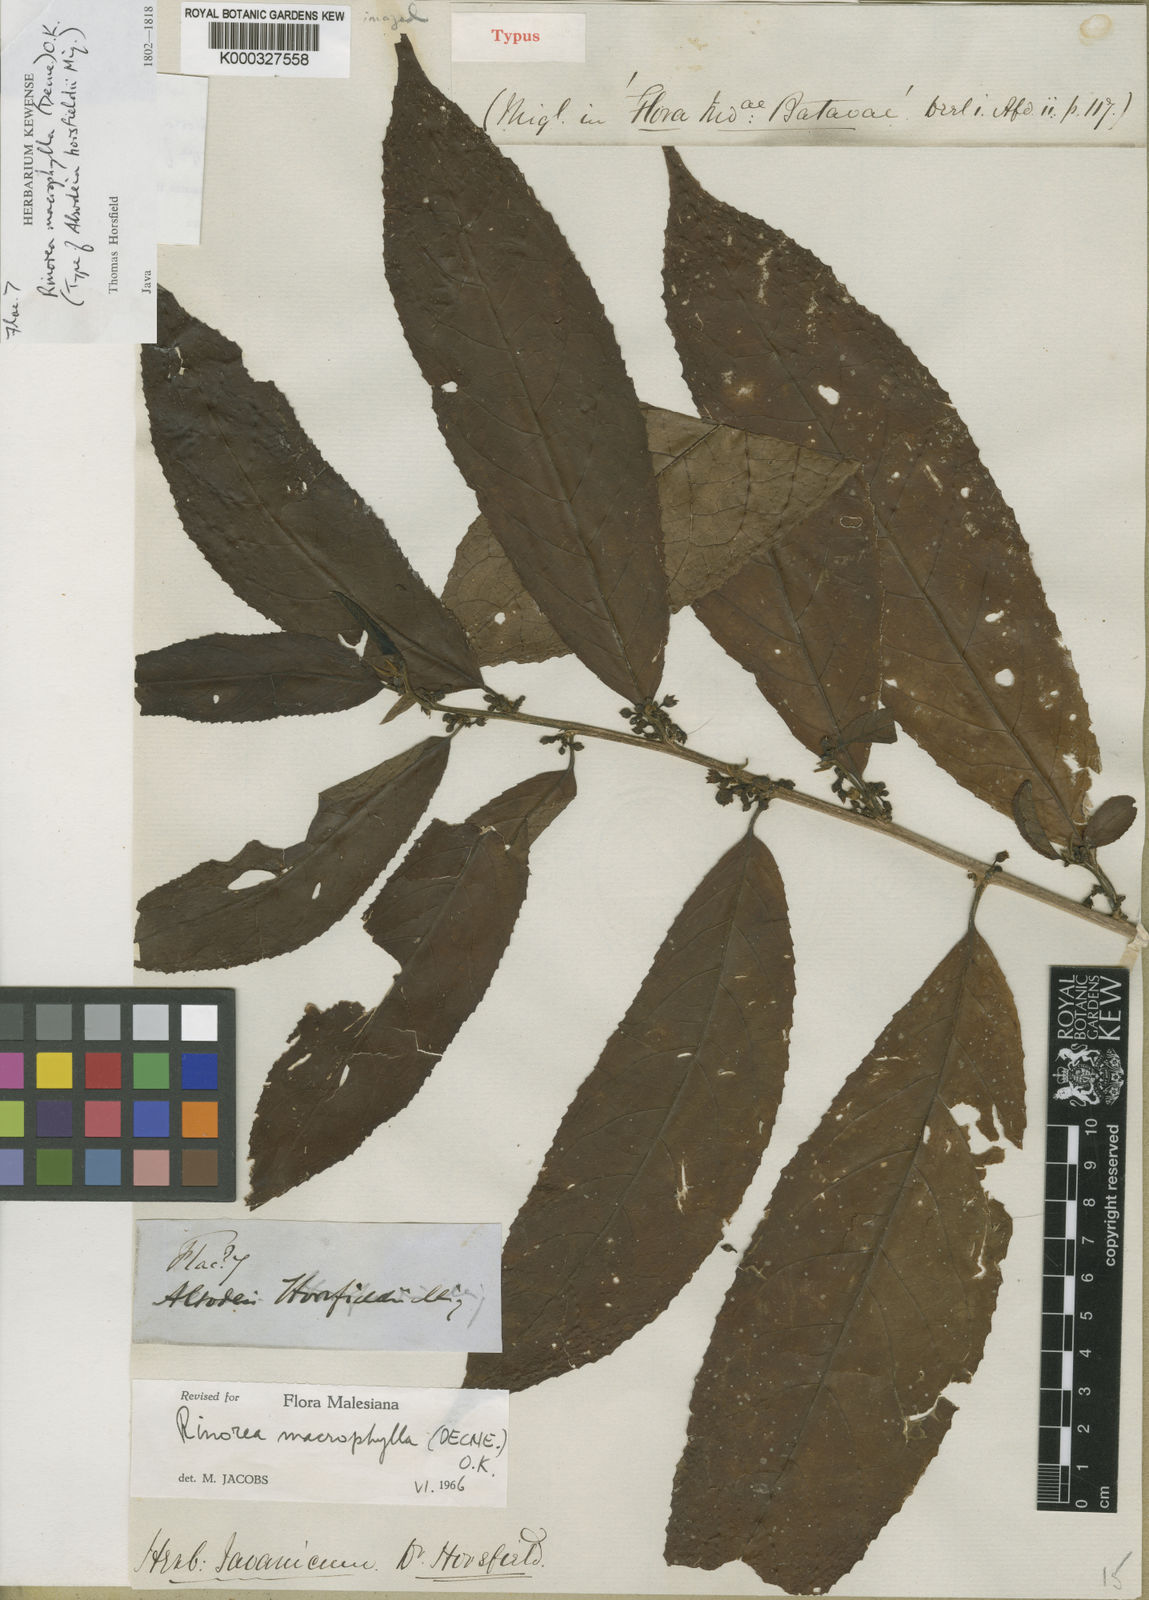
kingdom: Plantae
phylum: Tracheophyta
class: Magnoliopsida
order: Malpighiales
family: Violaceae
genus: Rinorea
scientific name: Rinorea macrophylla
